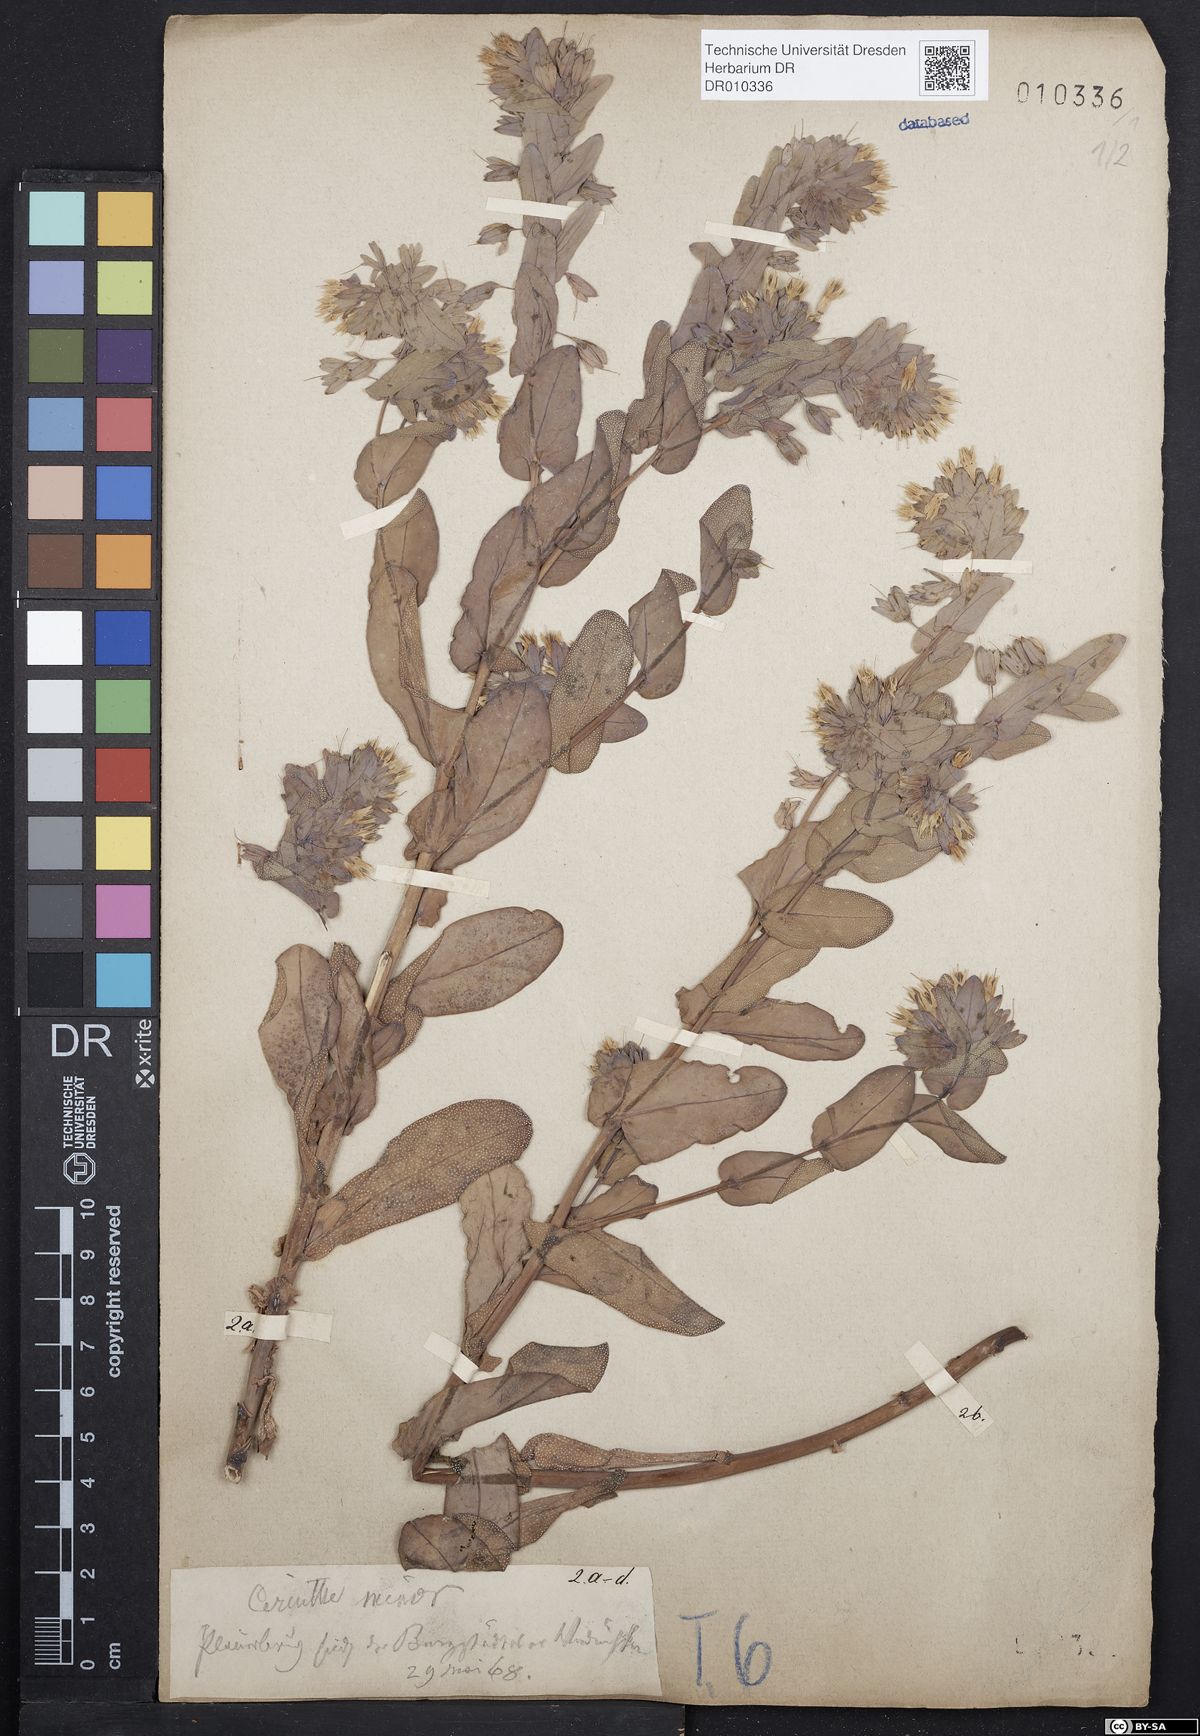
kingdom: Plantae
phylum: Tracheophyta
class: Magnoliopsida
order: Boraginales
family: Boraginaceae
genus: Cerinthe
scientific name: Cerinthe minor
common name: Lesser honeywort
